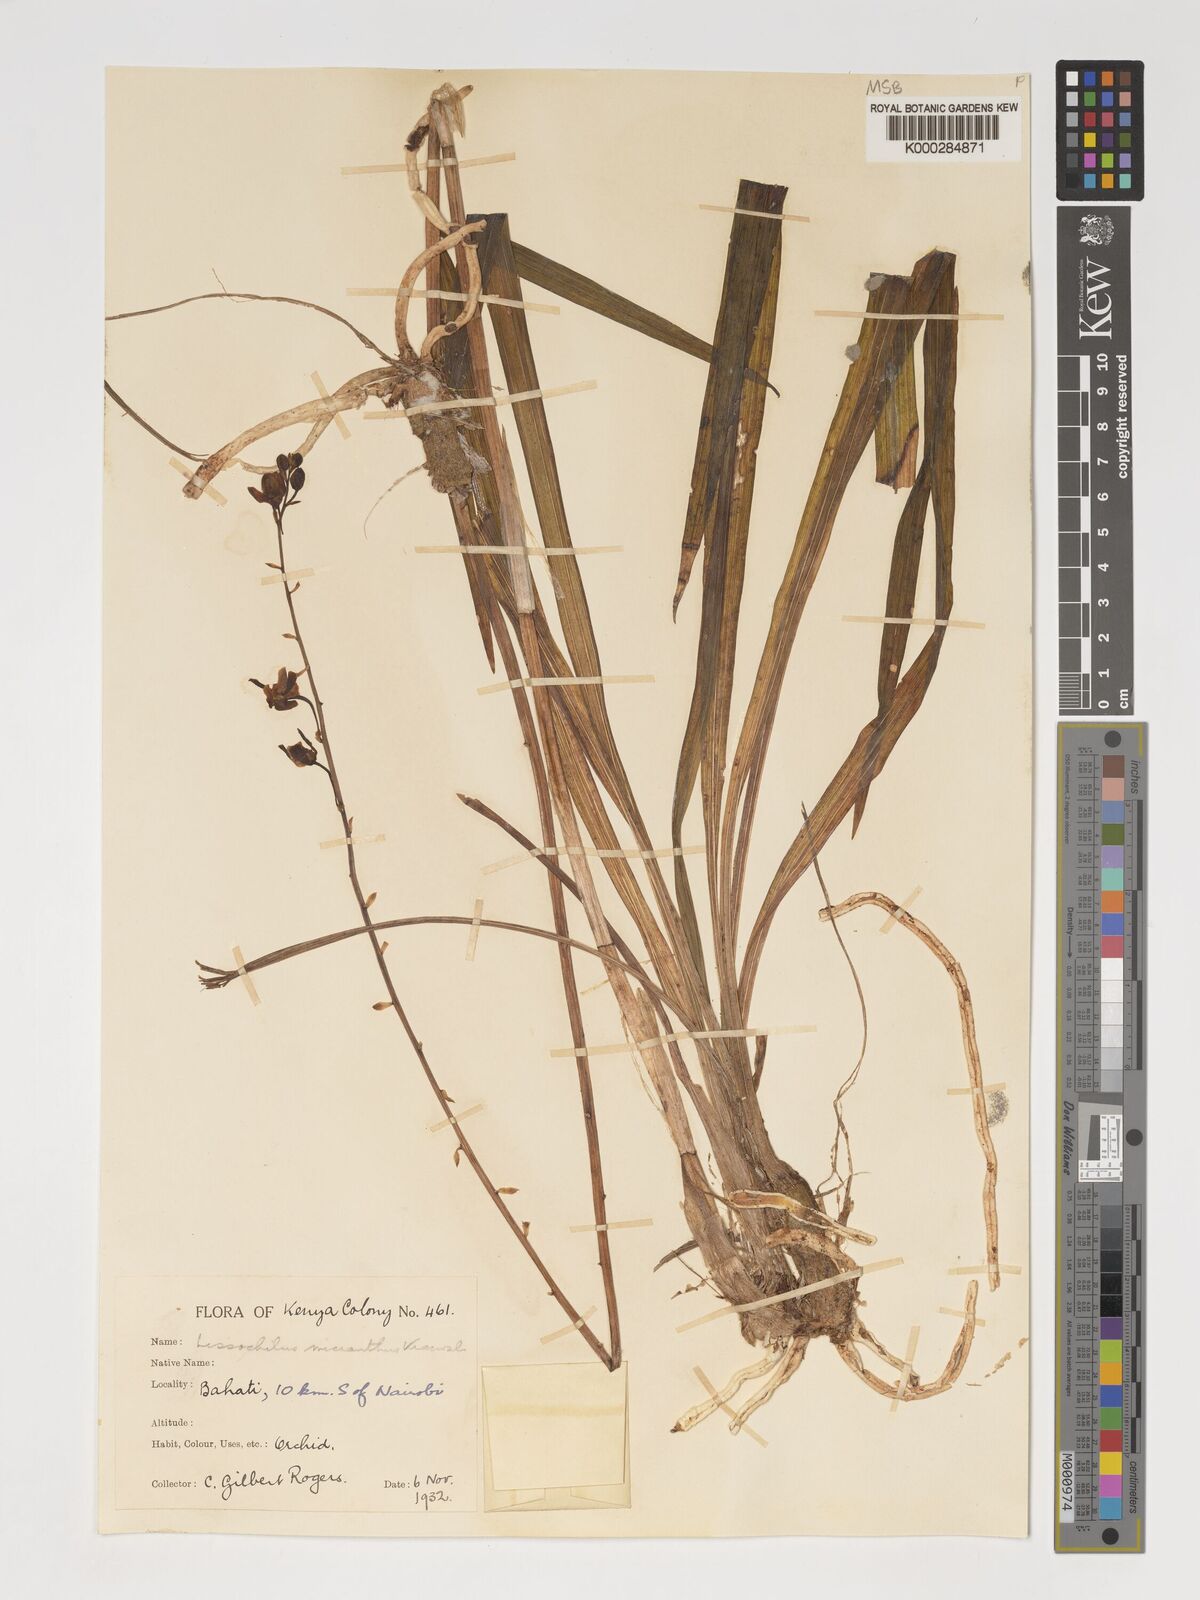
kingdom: Plantae
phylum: Tracheophyta
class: Liliopsida
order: Asparagales
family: Orchidaceae
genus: Eulophia
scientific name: Eulophia streptopetala
